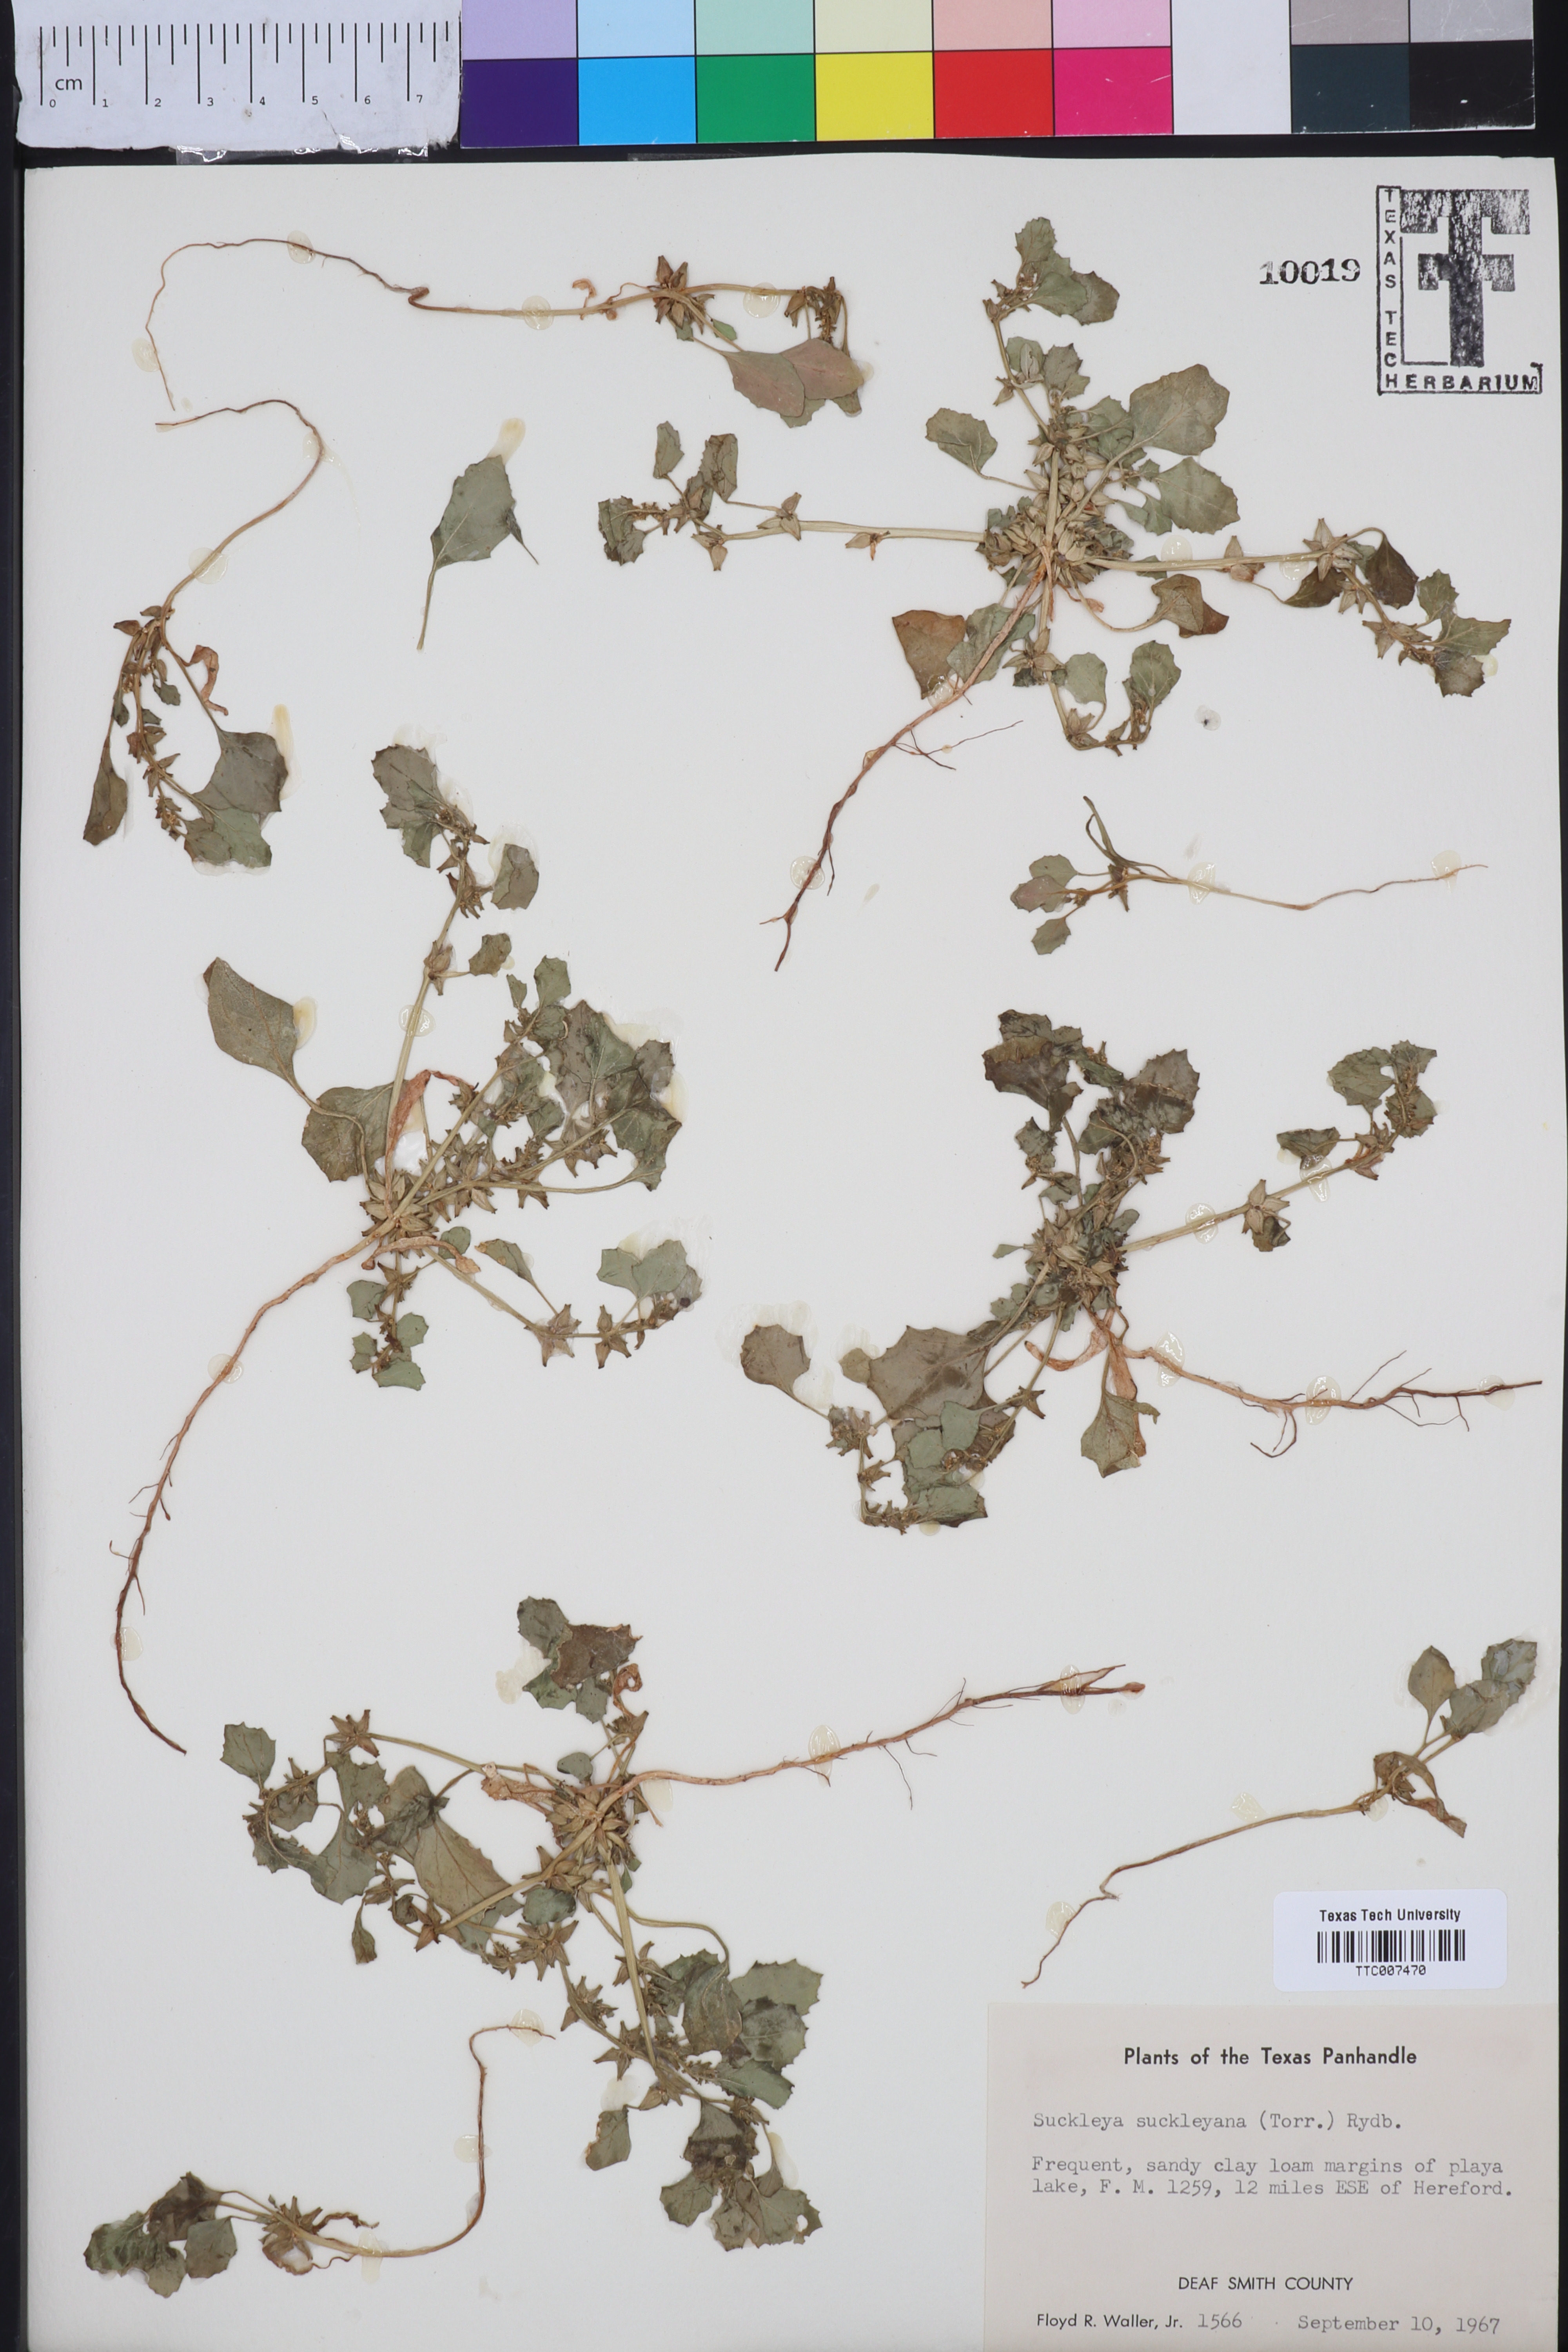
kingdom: Plantae
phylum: Tracheophyta
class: Magnoliopsida
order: Caryophyllales
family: Amaranthaceae
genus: Suckleya
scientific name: Suckleya suckleyana
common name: Poison suckleya
